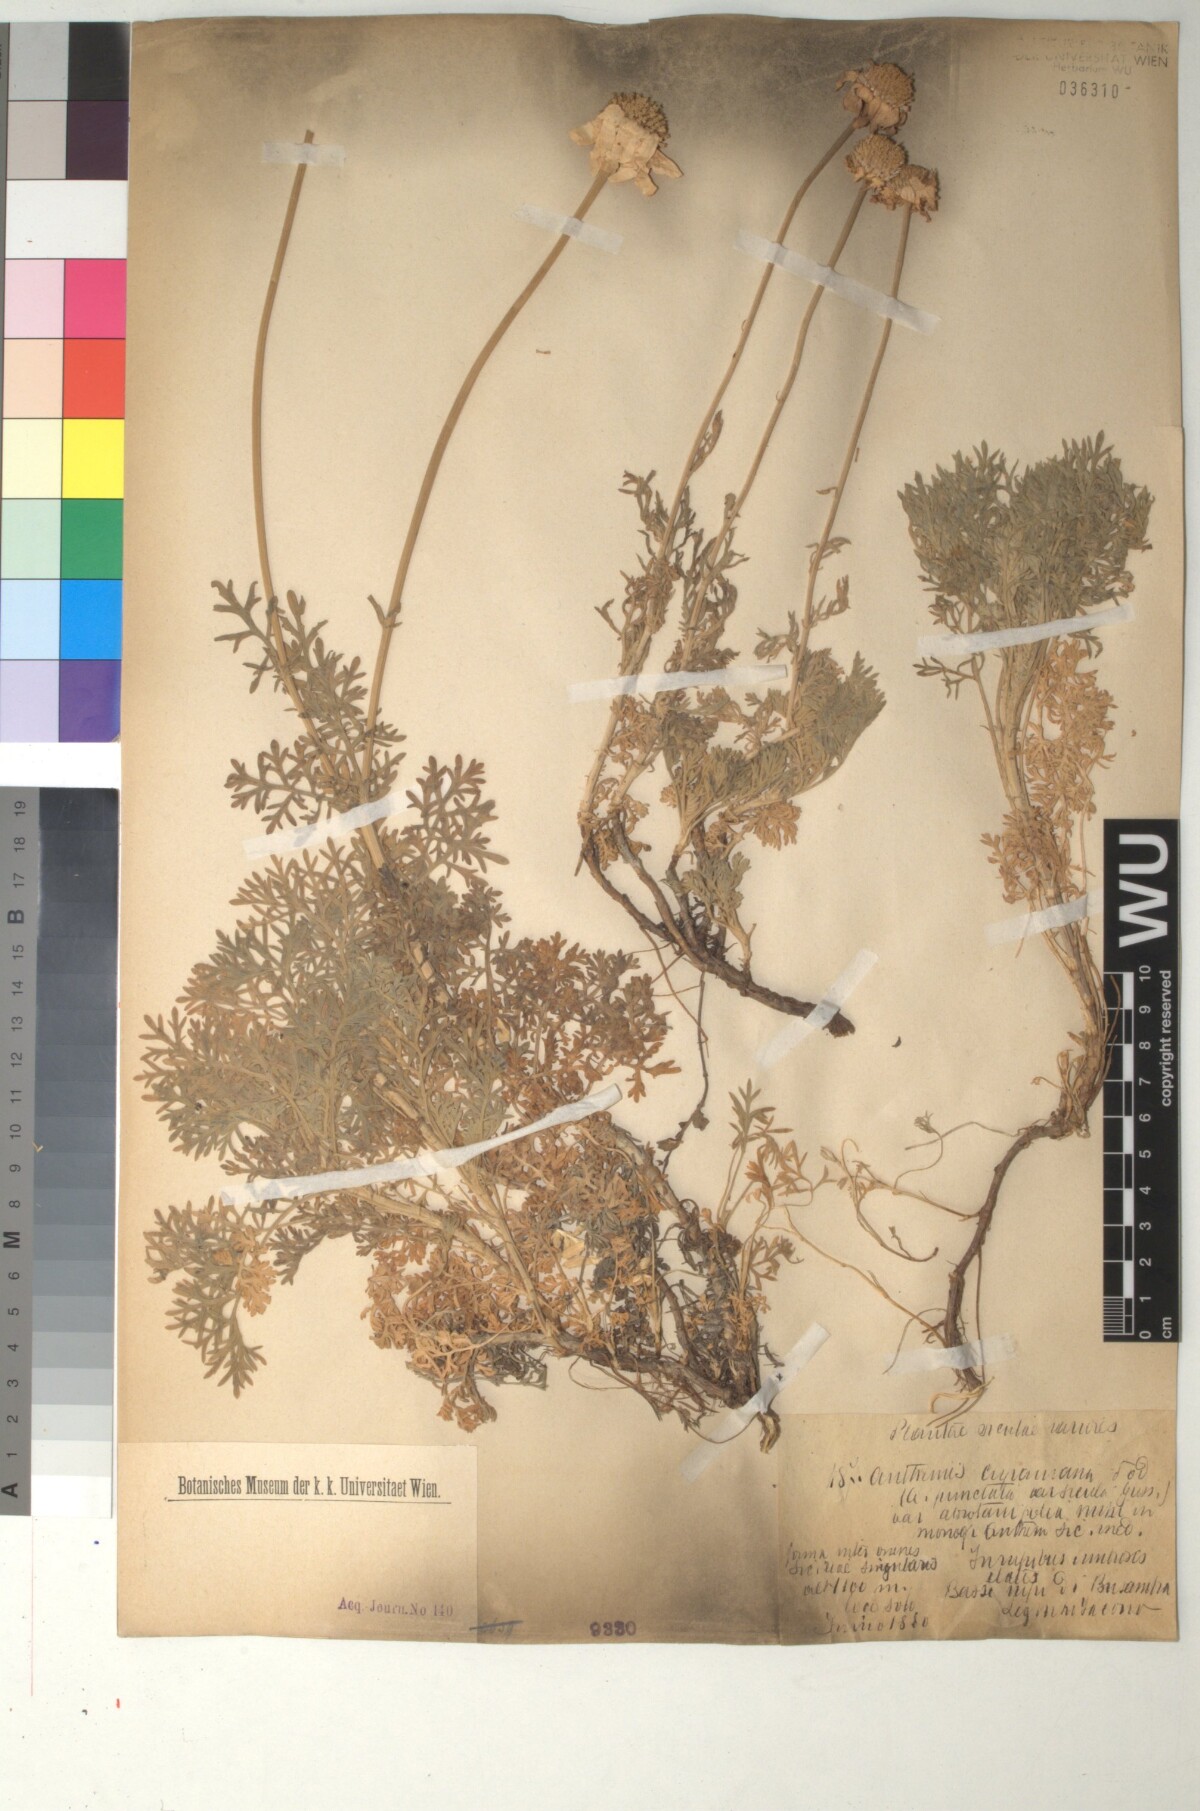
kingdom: Plantae
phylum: Tracheophyta
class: Magnoliopsida
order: Asterales
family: Asteraceae
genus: Anthemis
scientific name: Anthemis cupaniana
